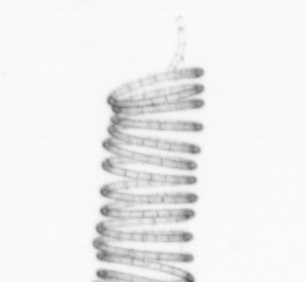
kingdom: Chromista
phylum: Ochrophyta
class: Bacillariophyceae
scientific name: Bacillariophyceae
